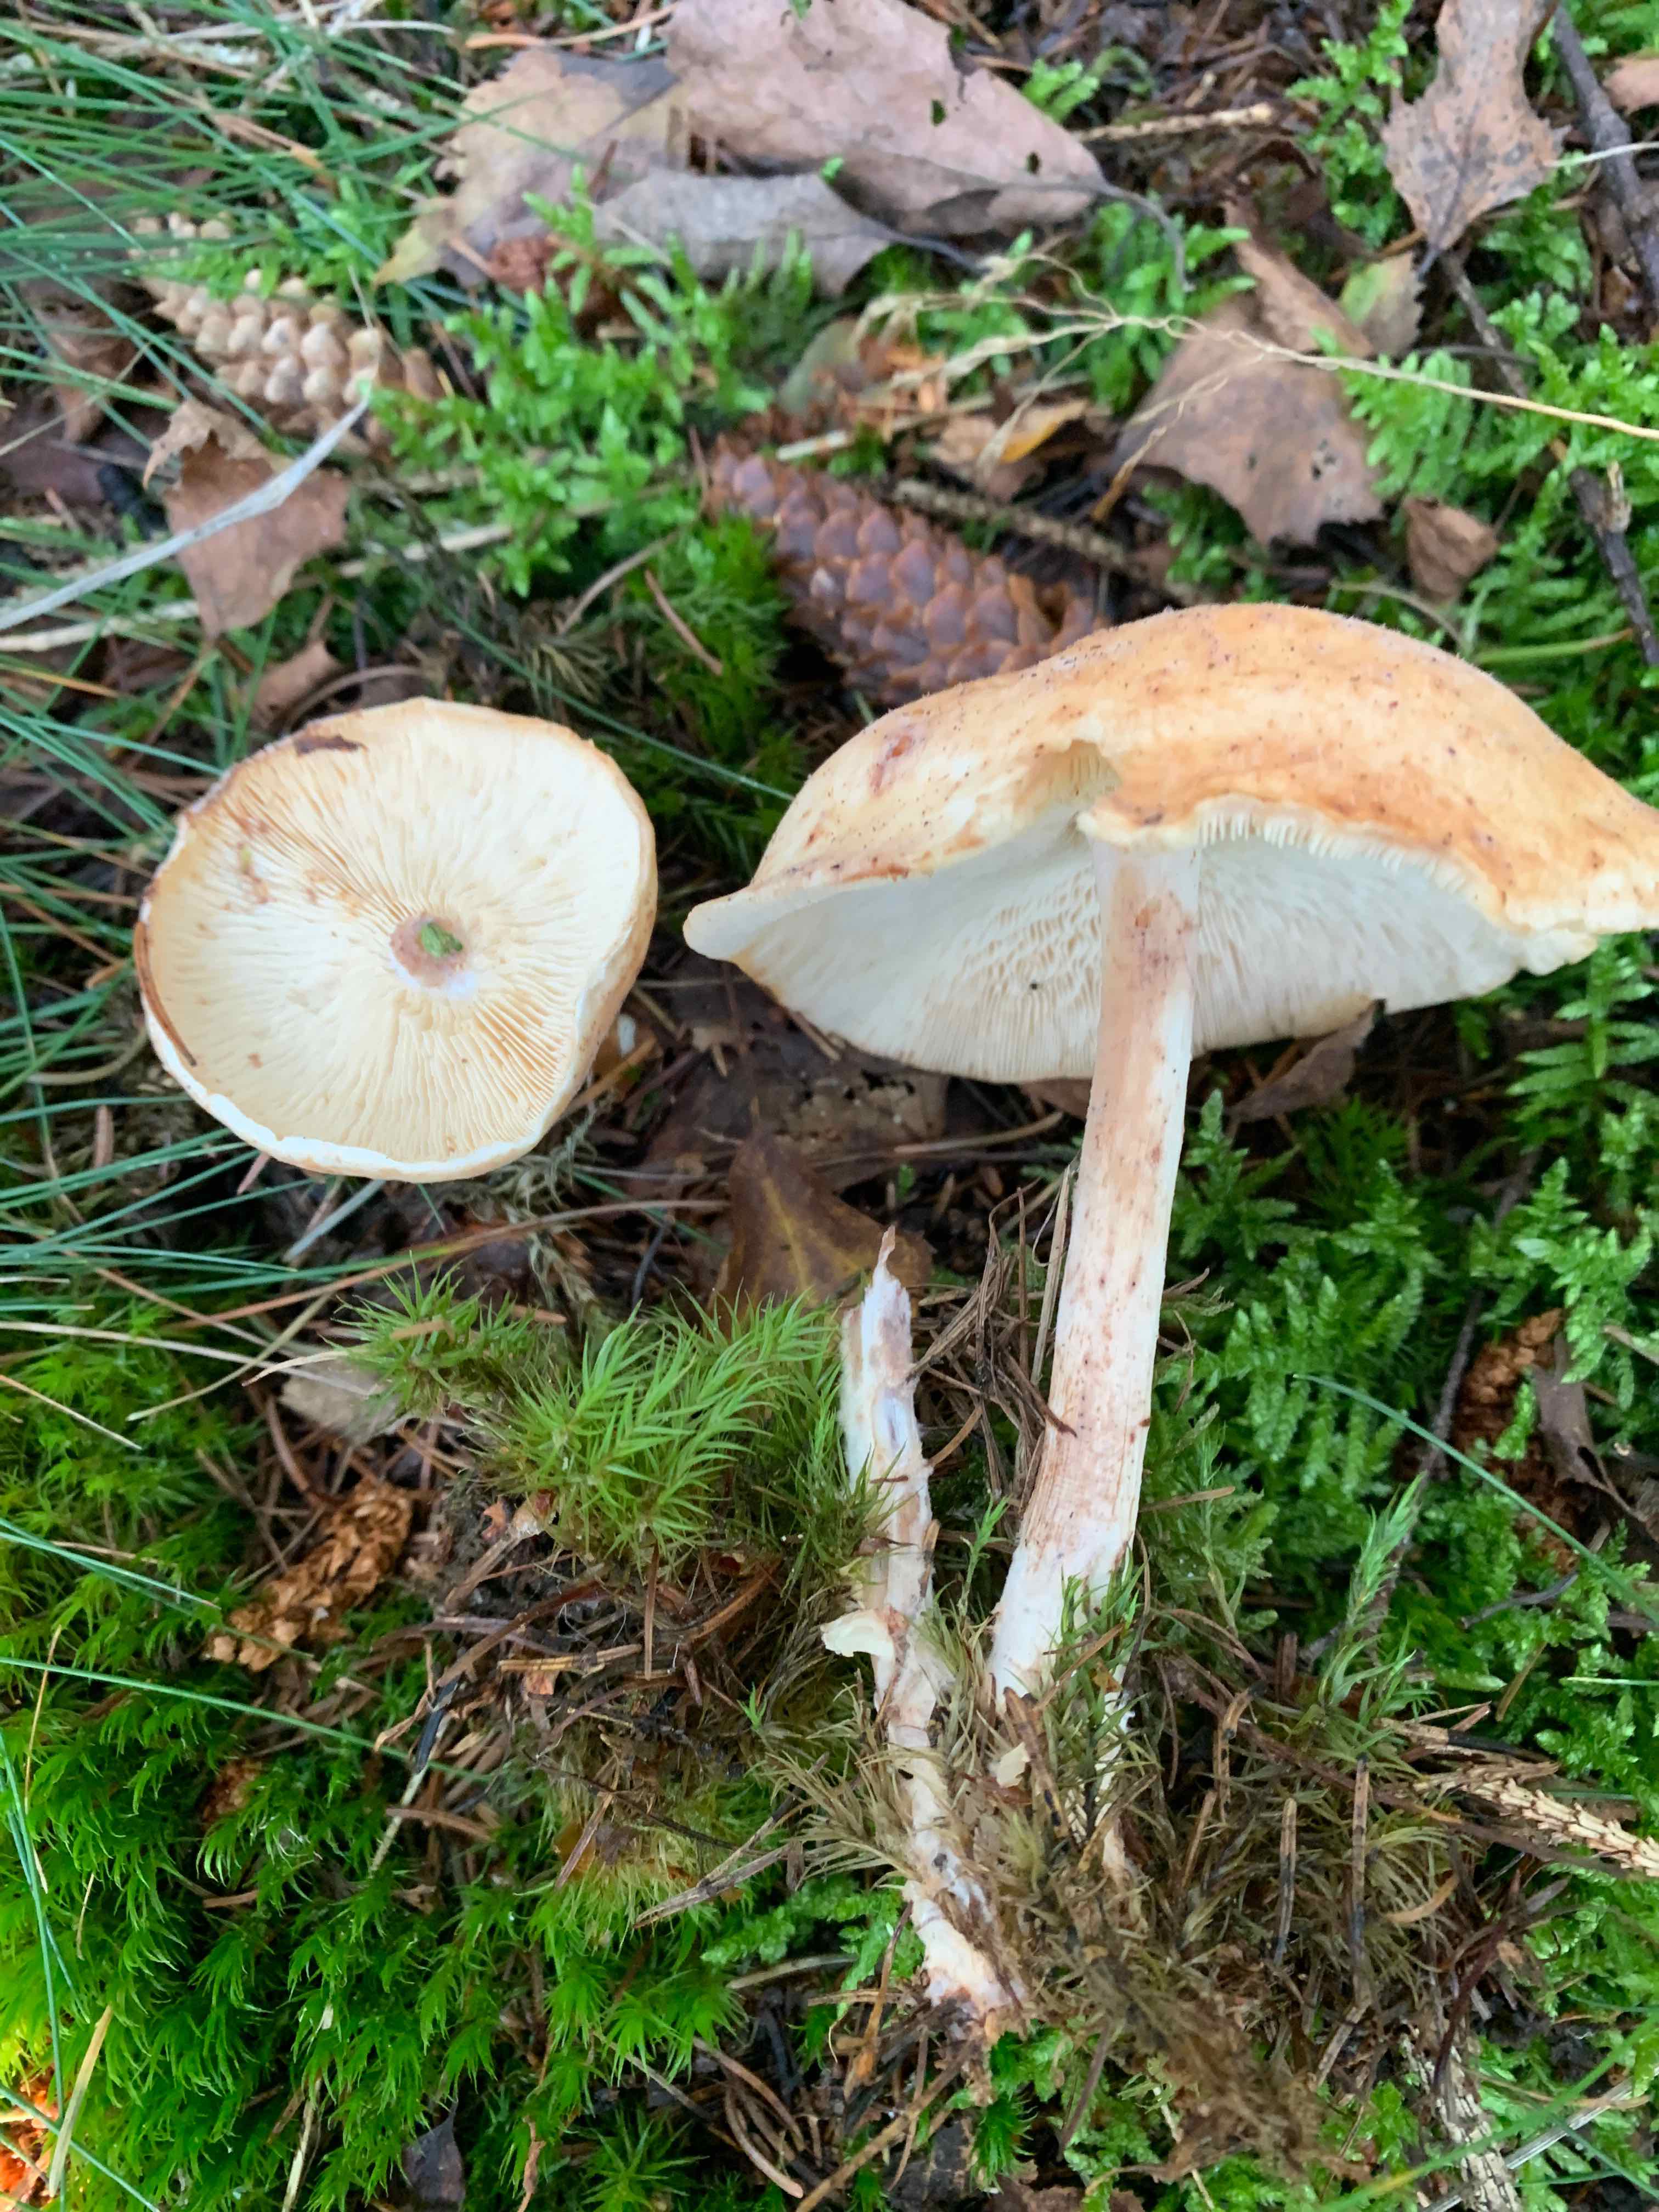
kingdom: Fungi
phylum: Basidiomycota
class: Agaricomycetes
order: Agaricales
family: Omphalotaceae
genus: Rhodocollybia
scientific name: Rhodocollybia maculata
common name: plettet fladhat
